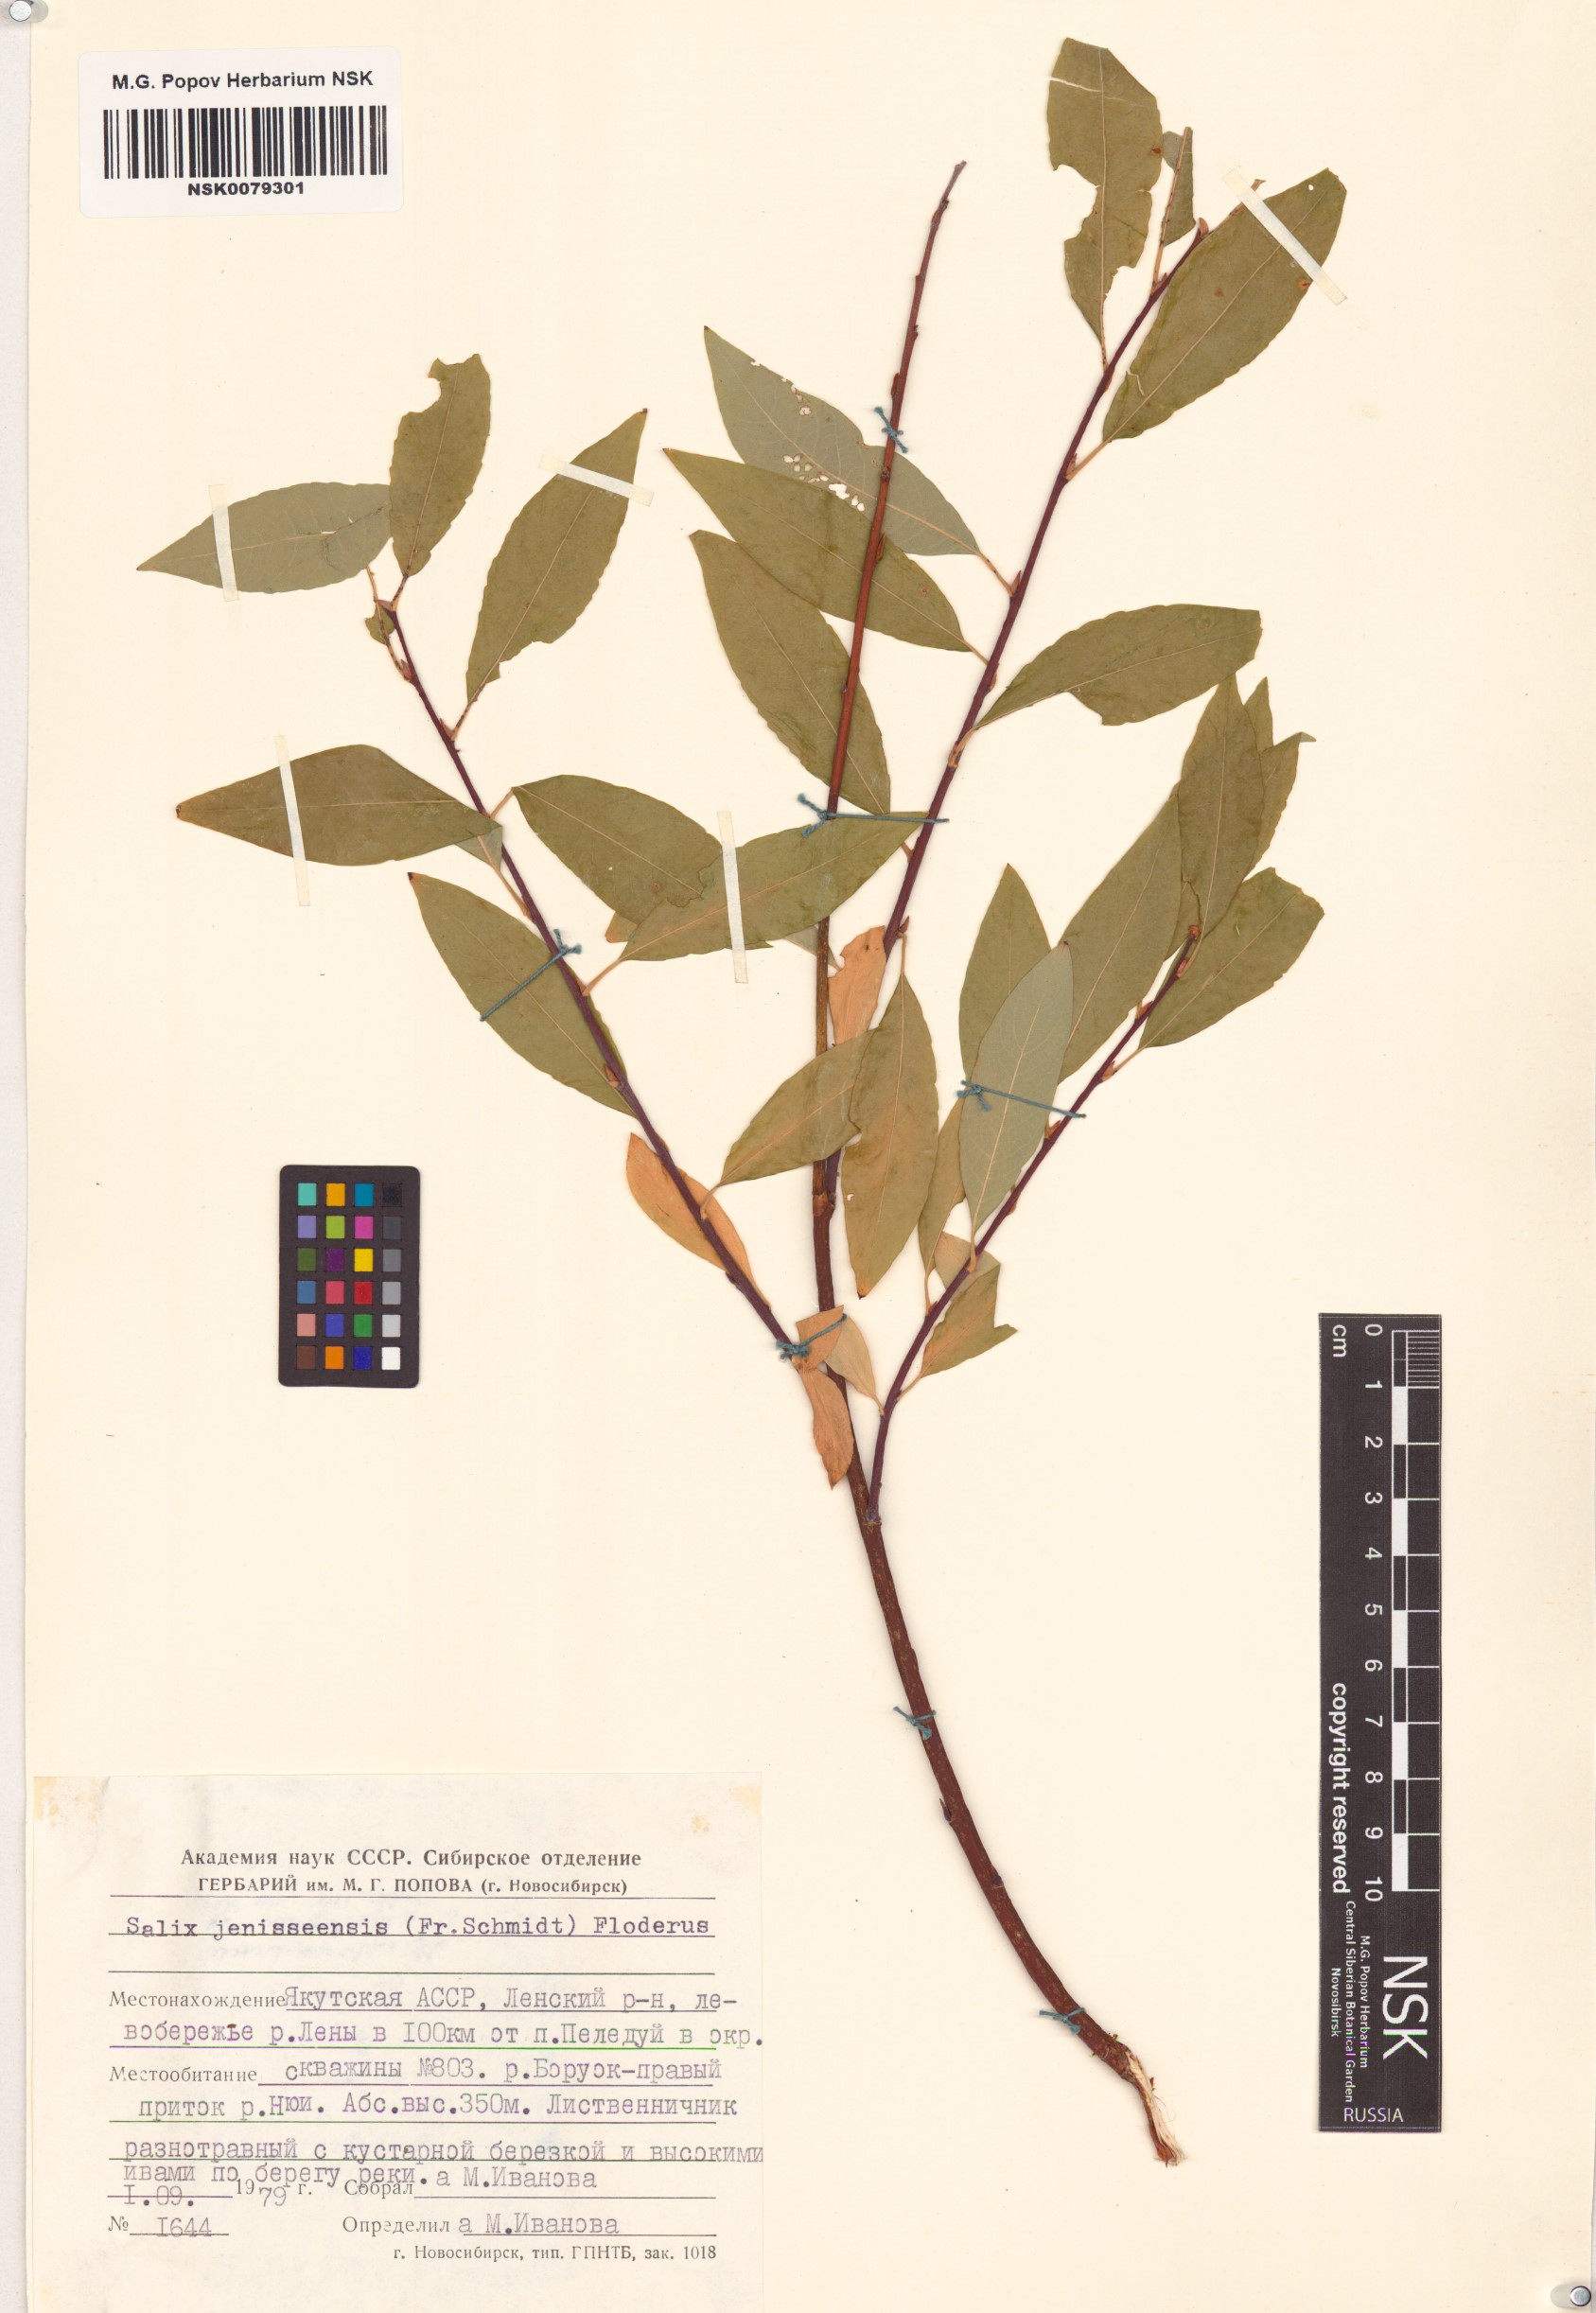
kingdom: Plantae
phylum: Tracheophyta
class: Magnoliopsida
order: Malpighiales
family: Salicaceae
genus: Salix
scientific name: Salix jenisseensis
